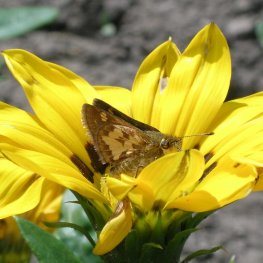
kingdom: Animalia
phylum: Arthropoda
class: Insecta
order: Lepidoptera
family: Hesperiidae
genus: Polites
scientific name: Polites coras
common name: Peck's Skipper
